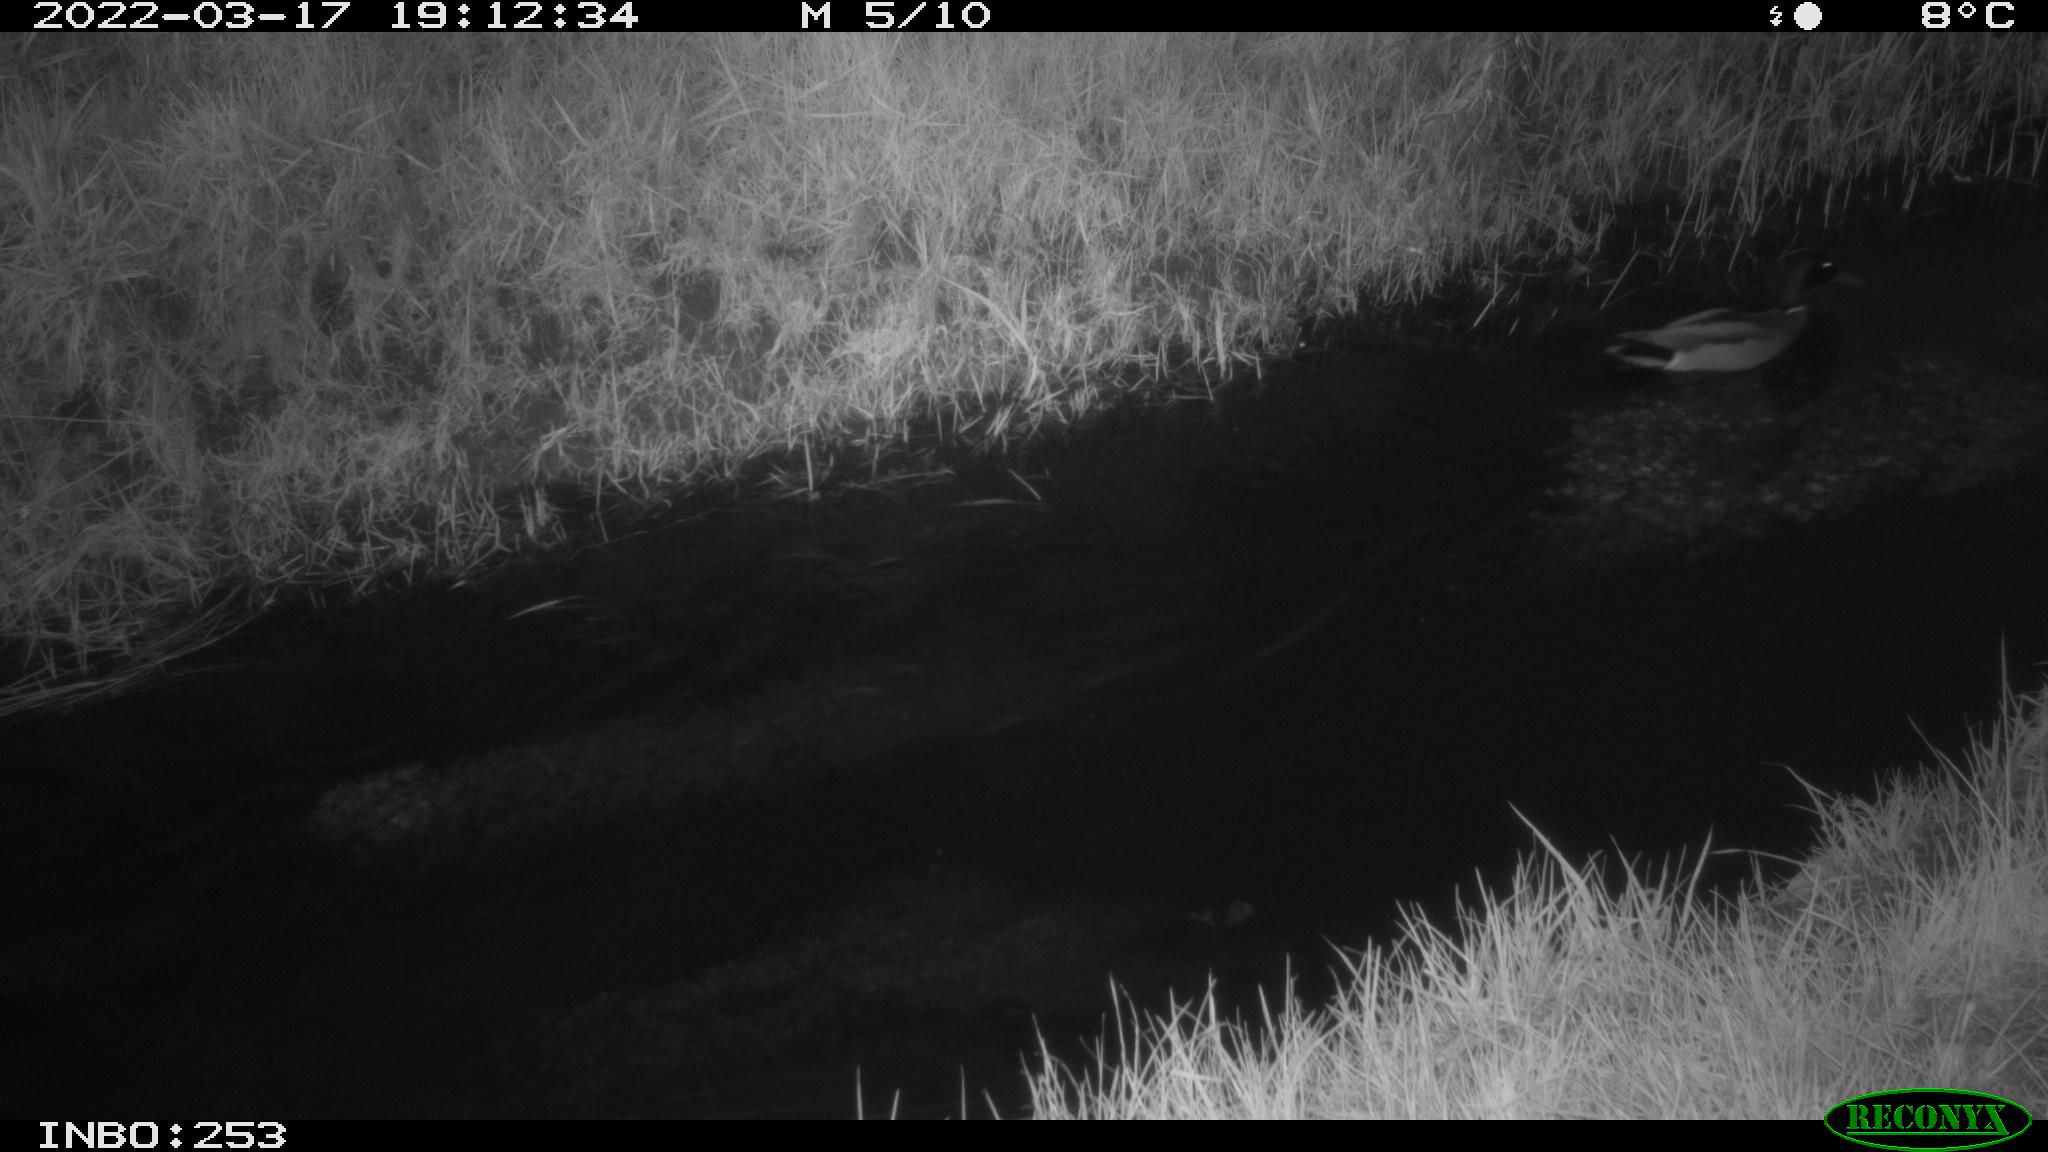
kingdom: Animalia
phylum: Chordata
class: Aves
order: Anseriformes
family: Anatidae
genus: Anas
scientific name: Anas platyrhynchos
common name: Mallard
